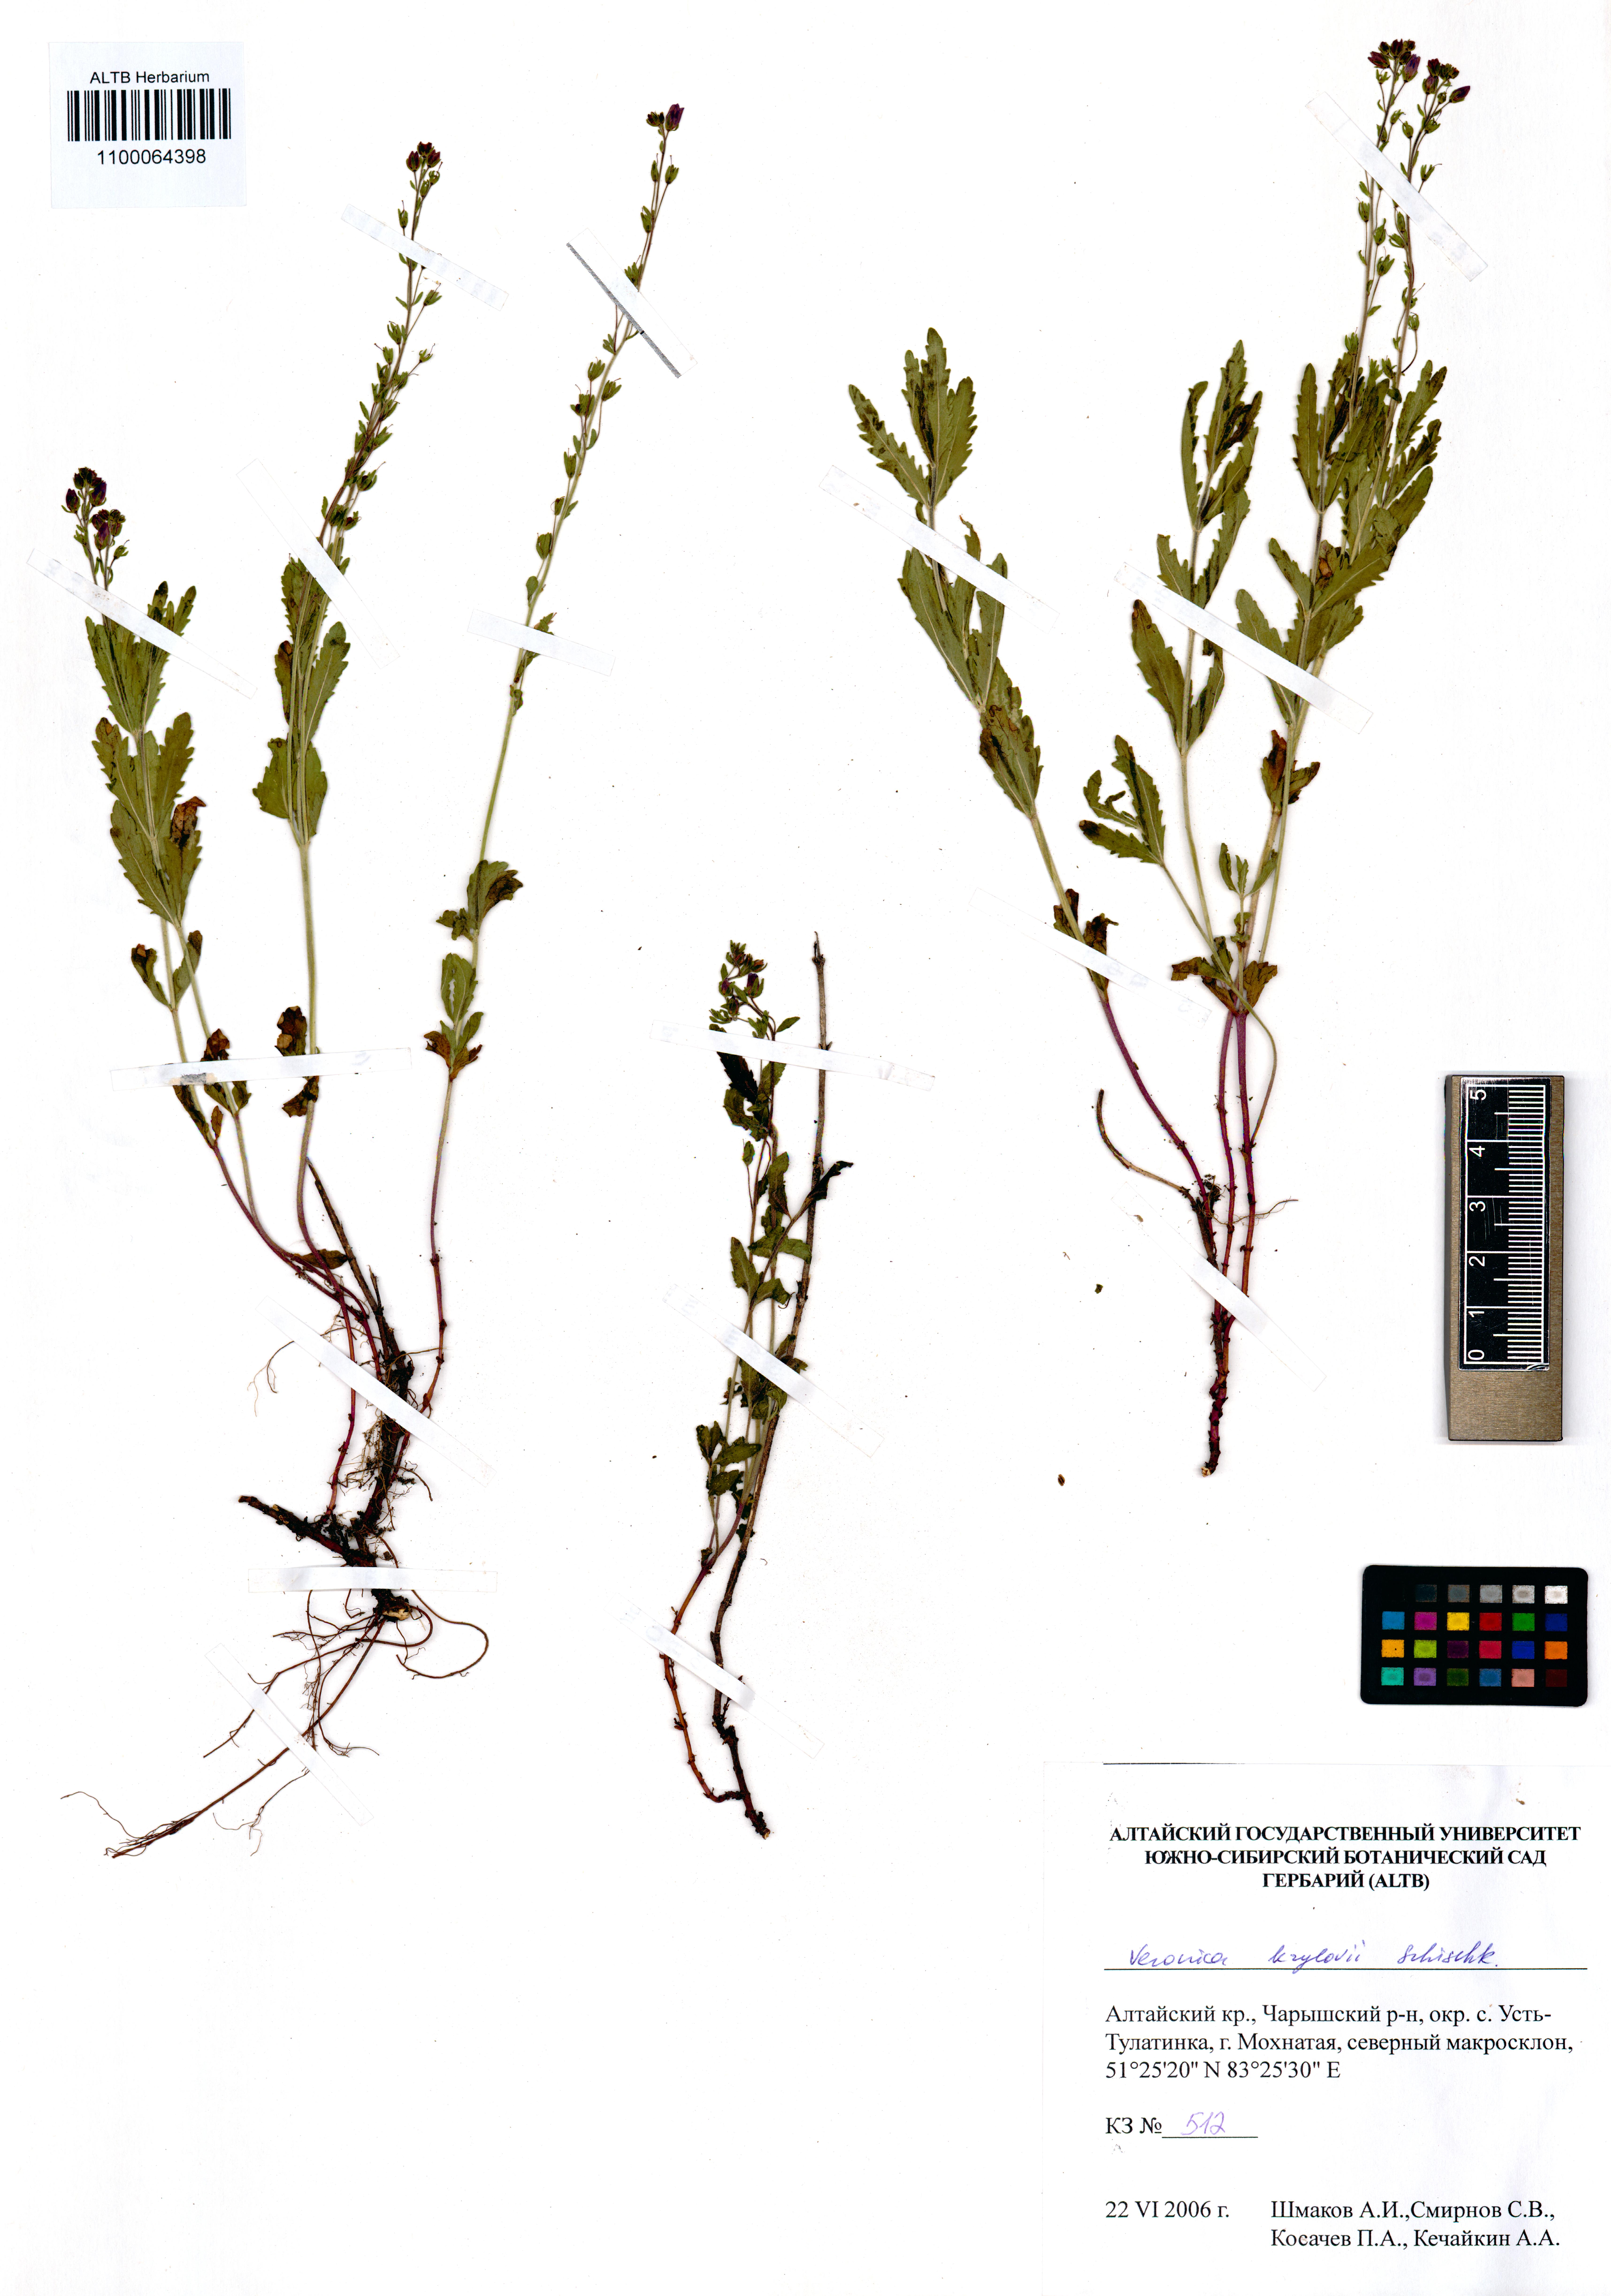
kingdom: Plantae
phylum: Tracheophyta
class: Magnoliopsida
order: Lamiales
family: Plantaginaceae
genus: Veronica
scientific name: Veronica krylovii
